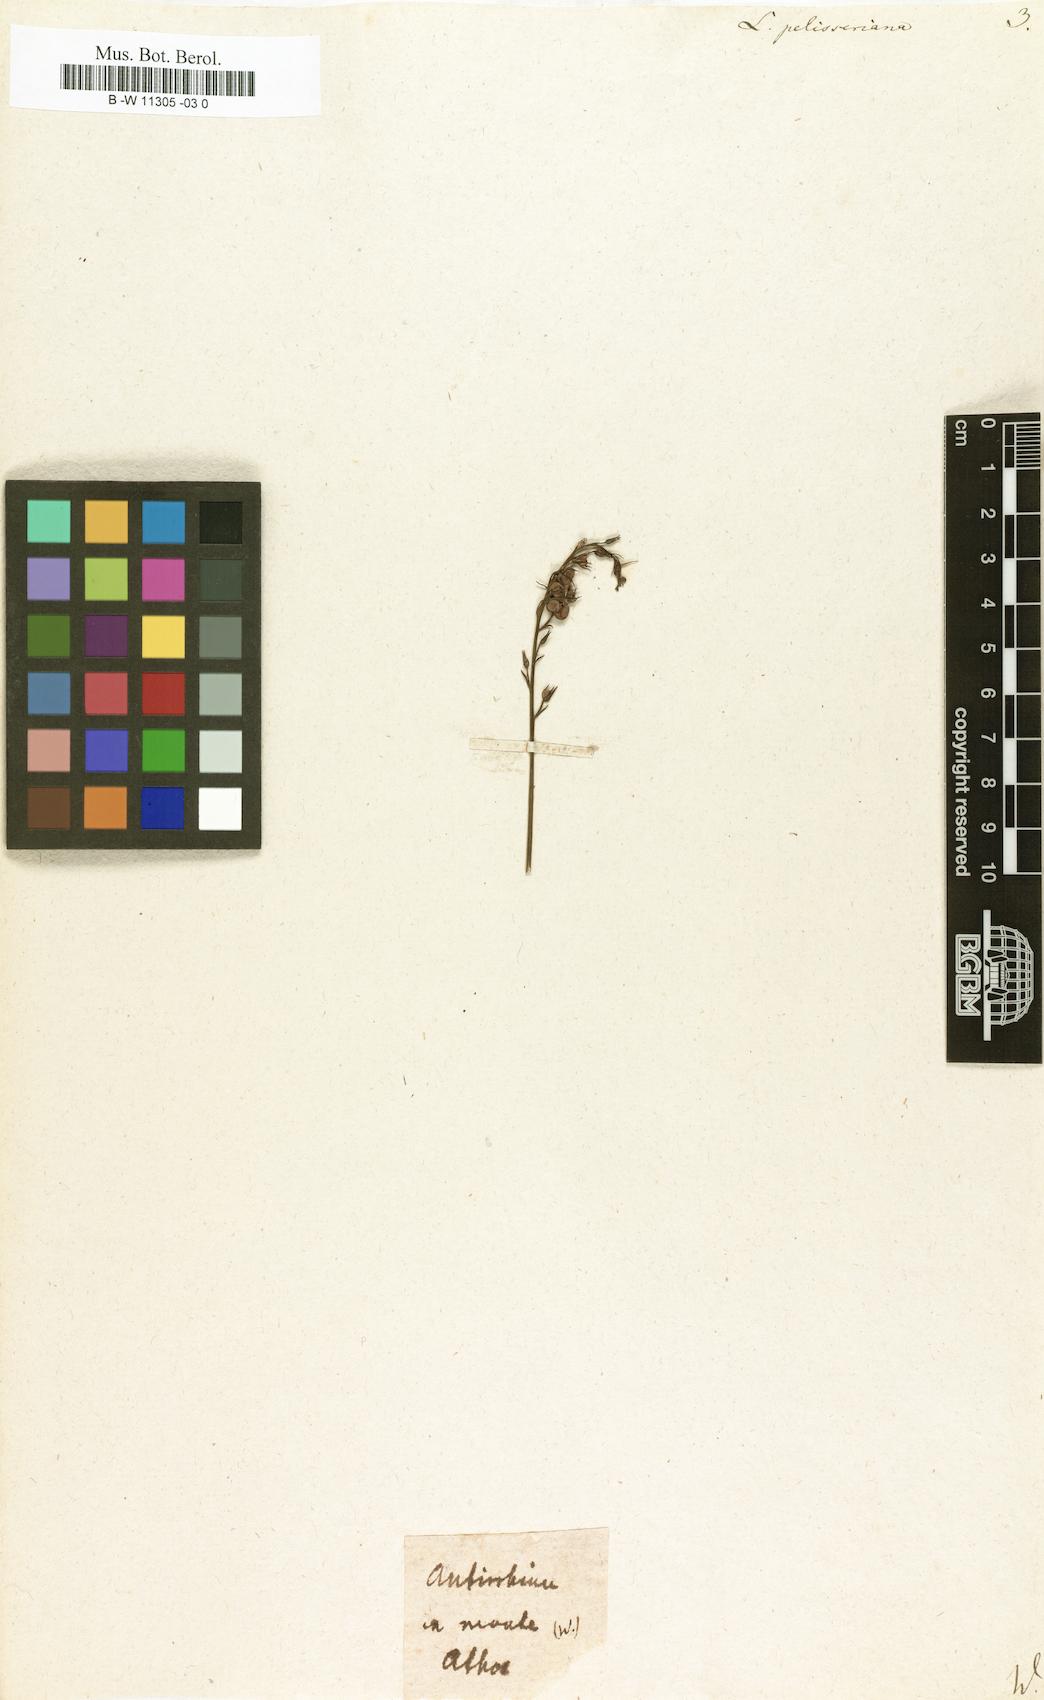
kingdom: Plantae
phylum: Tracheophyta
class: Magnoliopsida
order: Lamiales
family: Plantaginaceae
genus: Linaria
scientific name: Linaria pelisseriana
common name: Jersey toadflax
